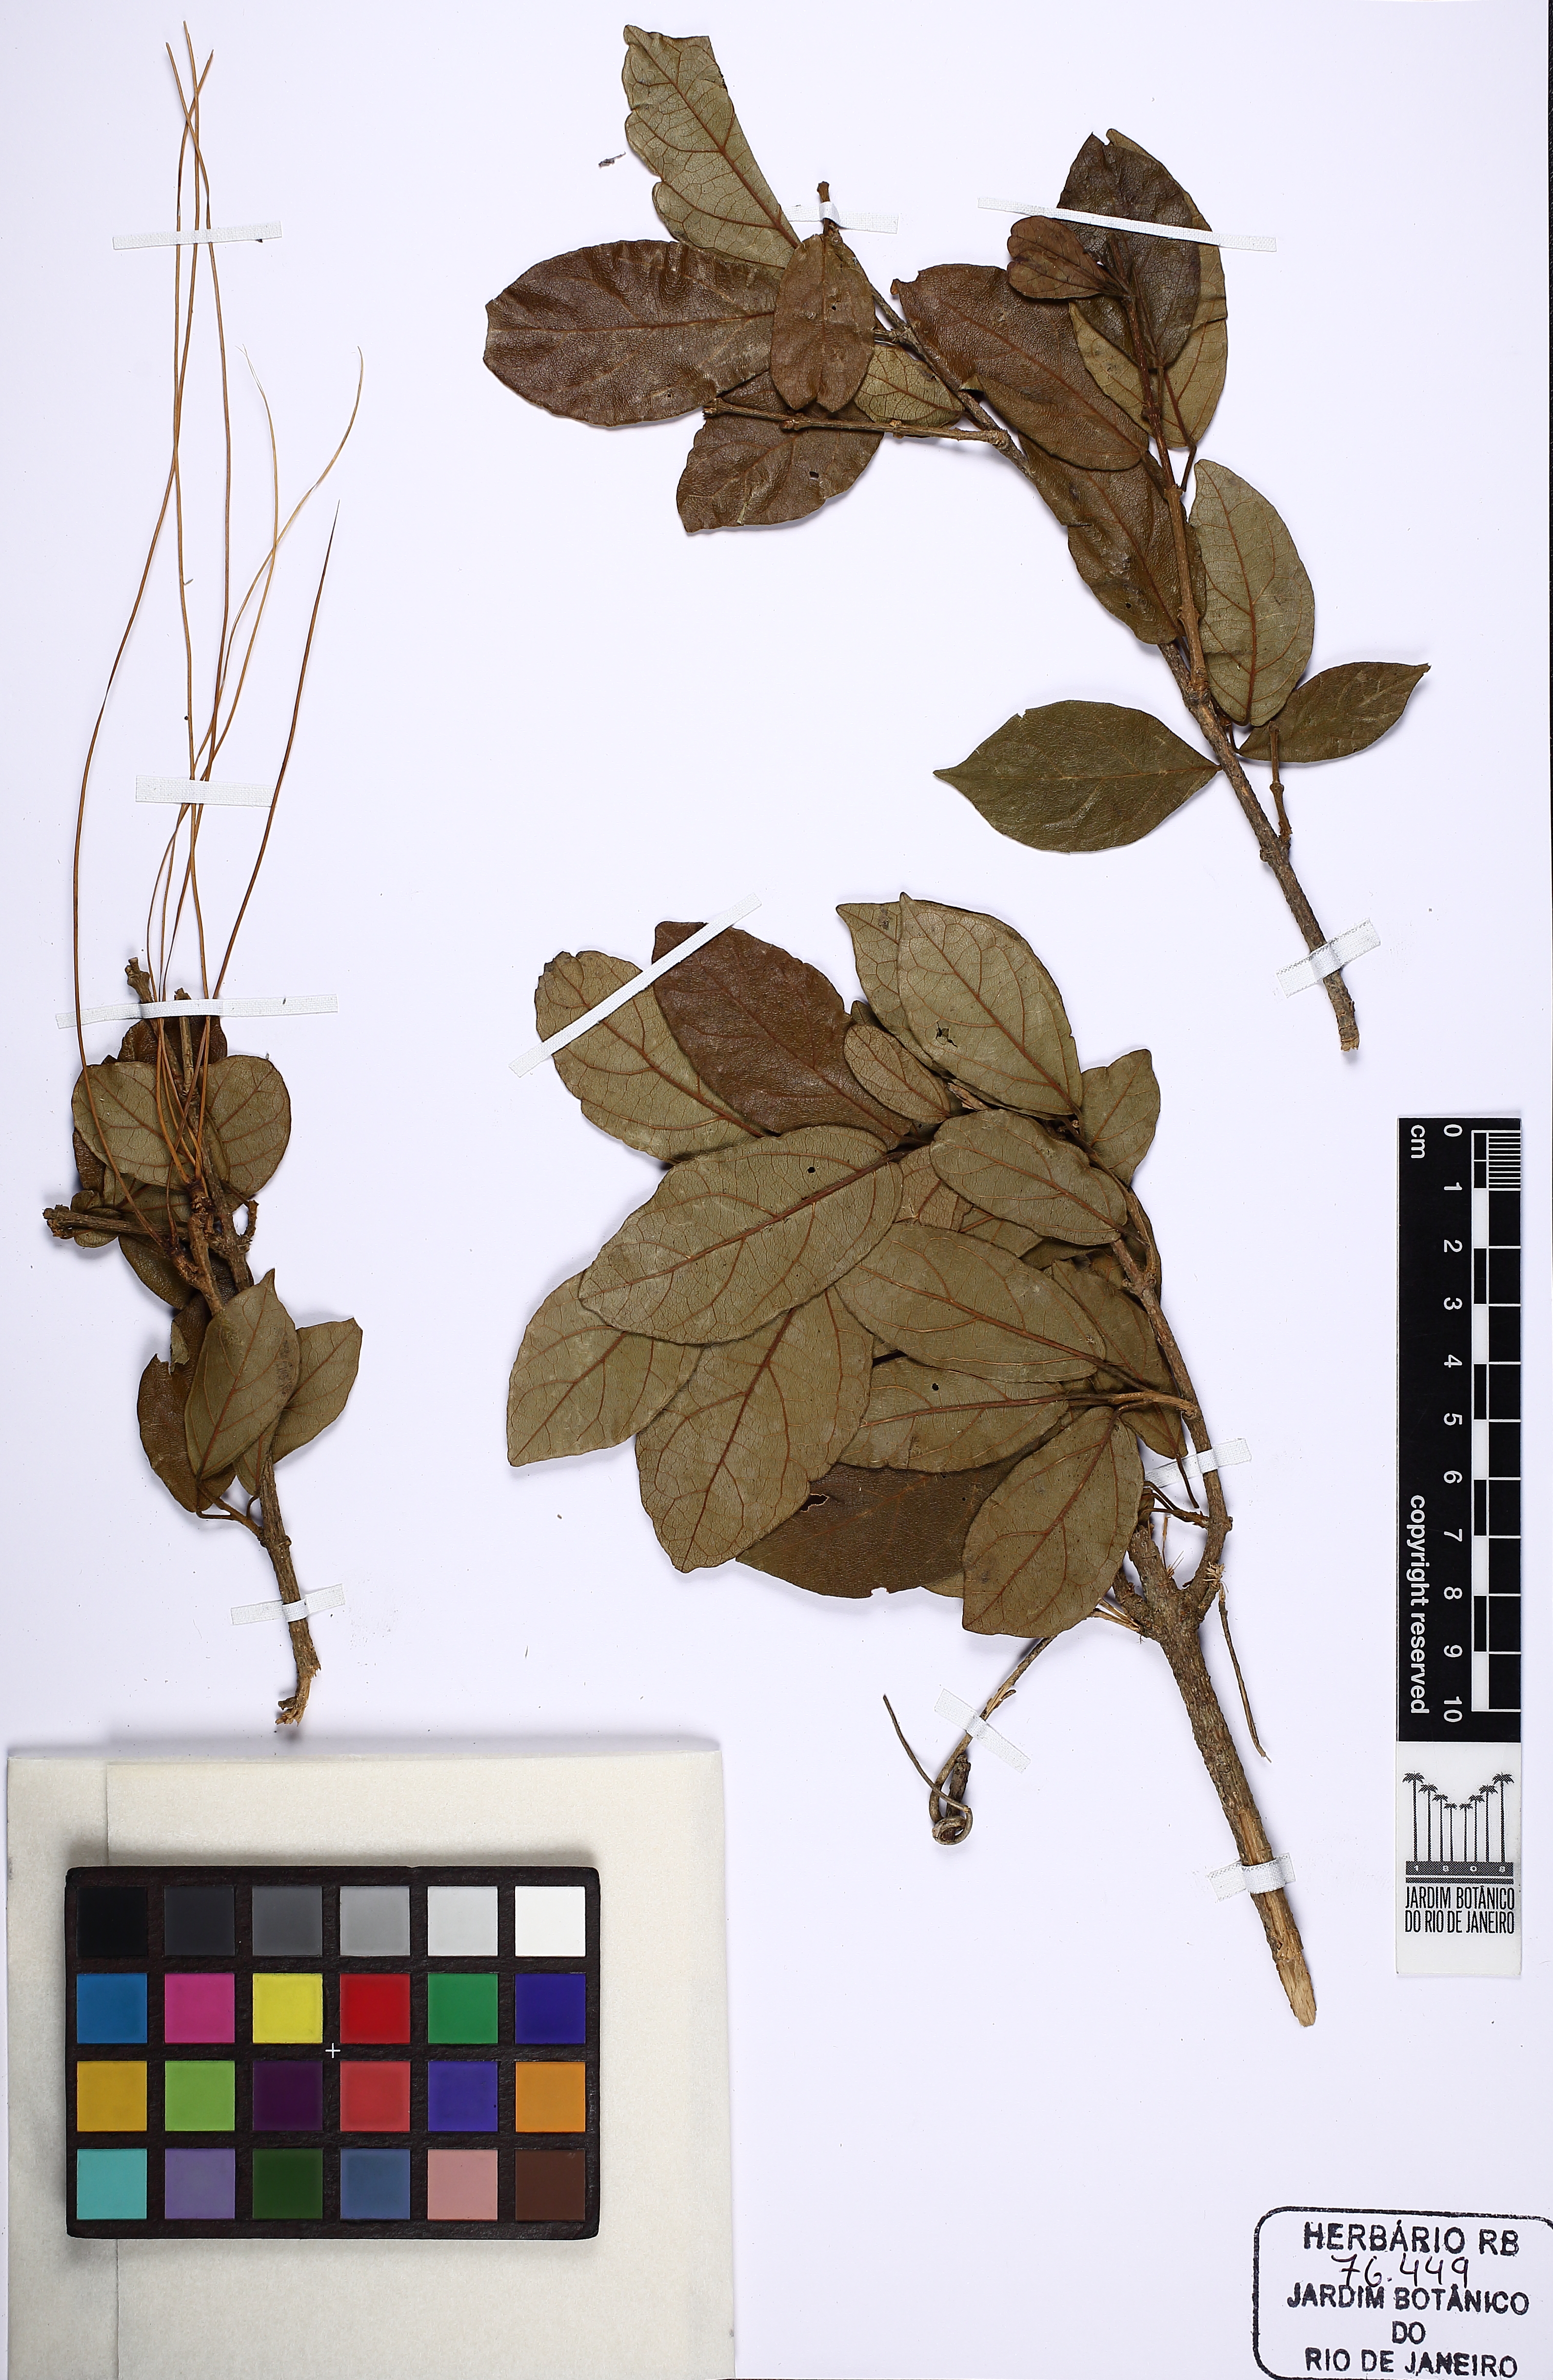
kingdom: Plantae
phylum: Tracheophyta
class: Magnoliopsida
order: Lamiales
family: Bignoniaceae
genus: Fridericia
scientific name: Fridericia samydoides
